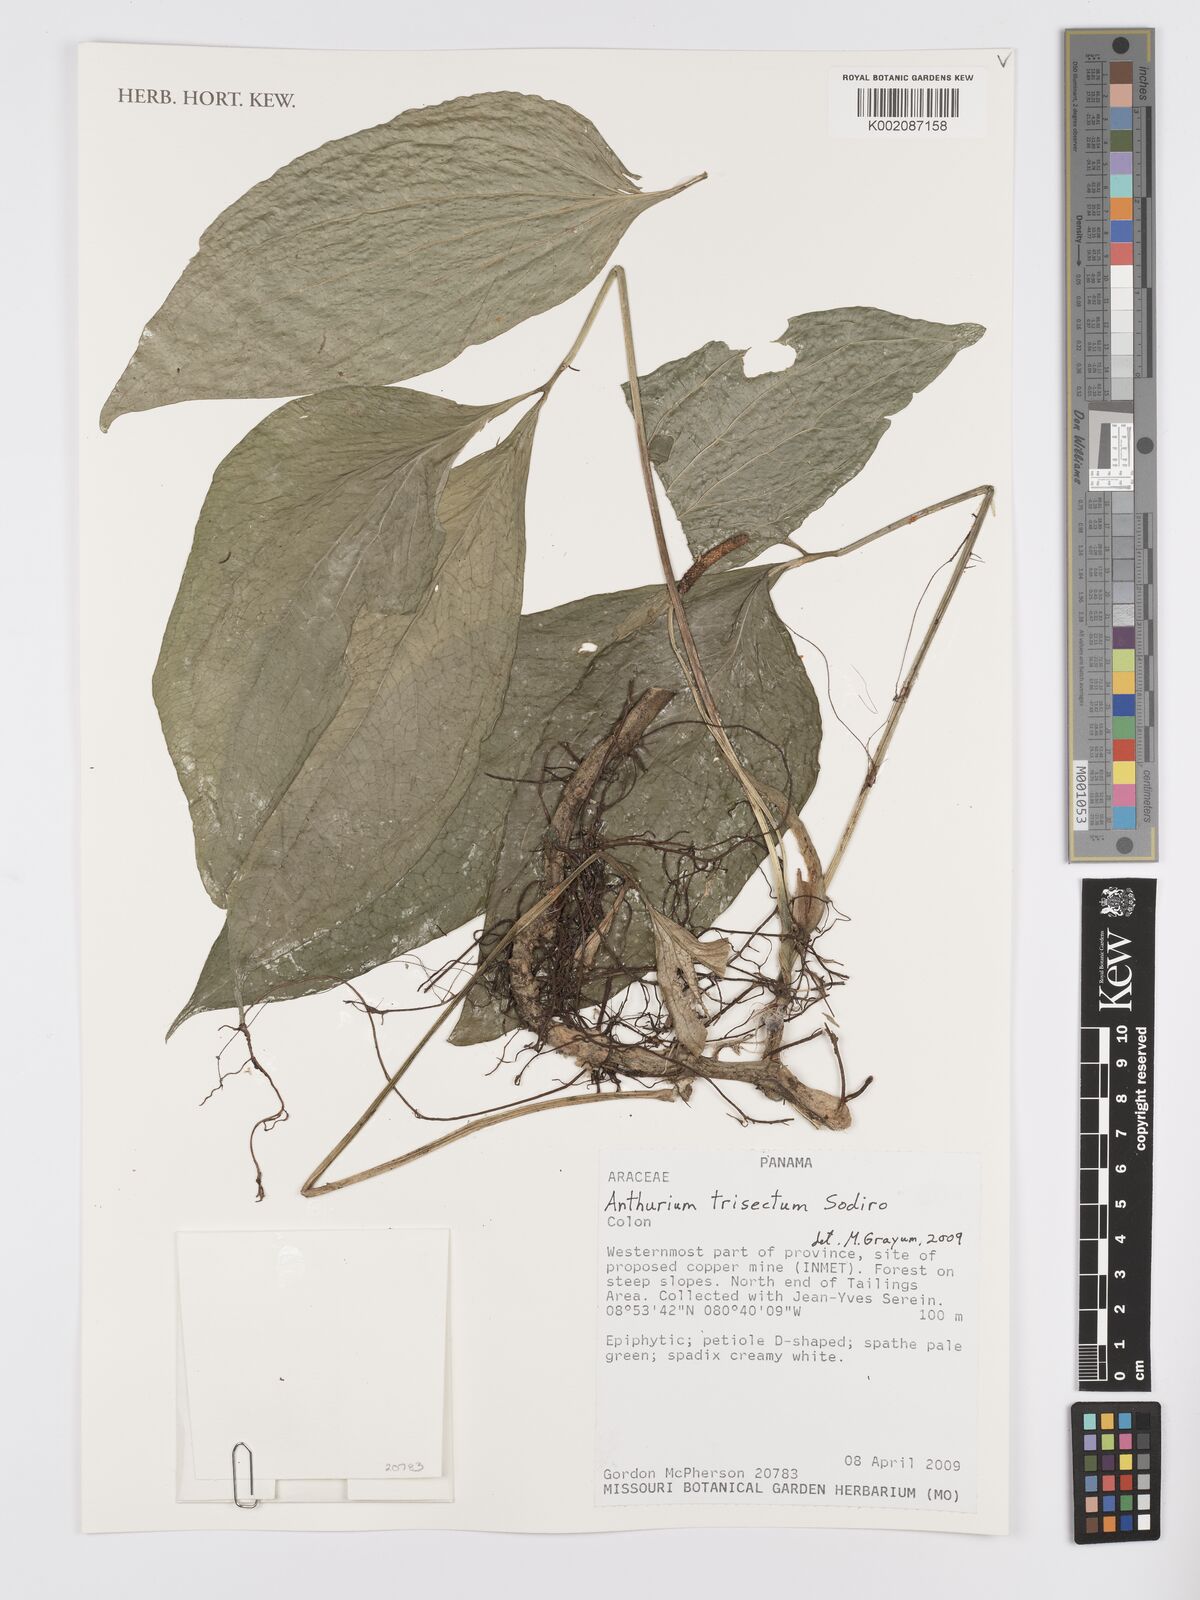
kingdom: Plantae
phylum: Tracheophyta
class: Liliopsida
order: Alismatales
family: Araceae
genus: Anthurium
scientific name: Anthurium trisectum
